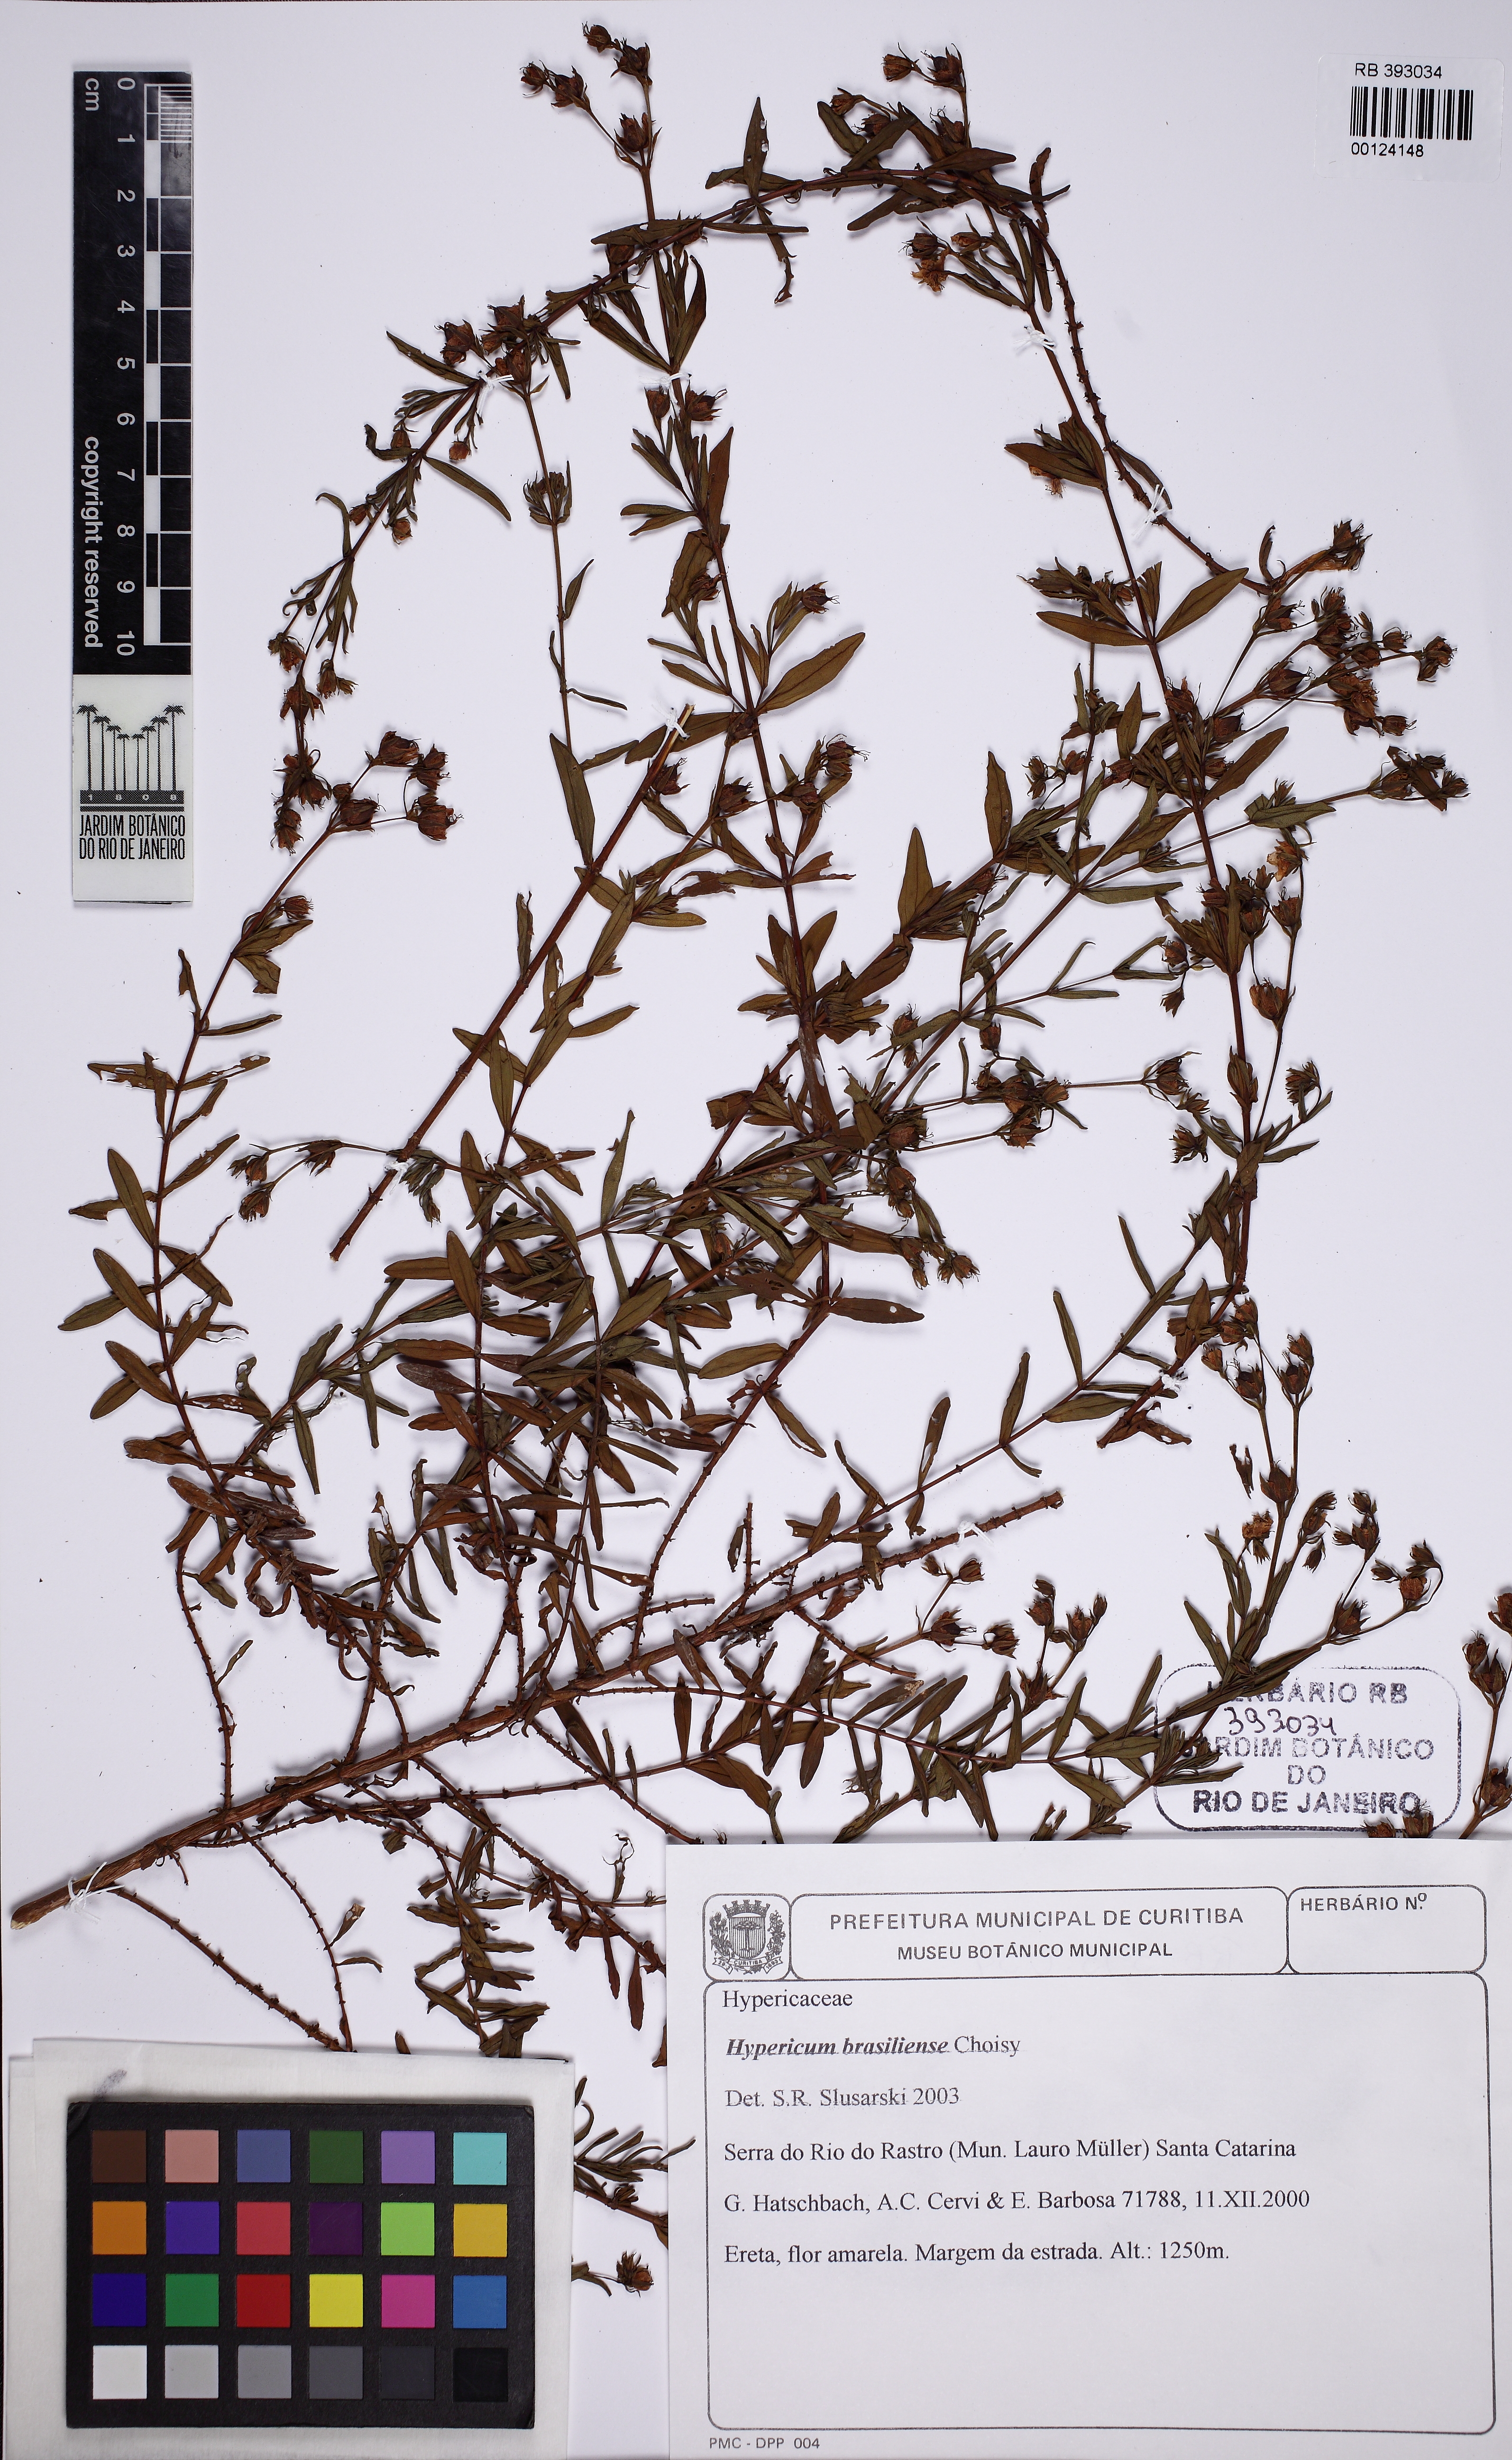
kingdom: Plantae
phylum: Tracheophyta
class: Magnoliopsida
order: Malpighiales
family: Hypericaceae
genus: Hypericum
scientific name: Hypericum brasiliense
